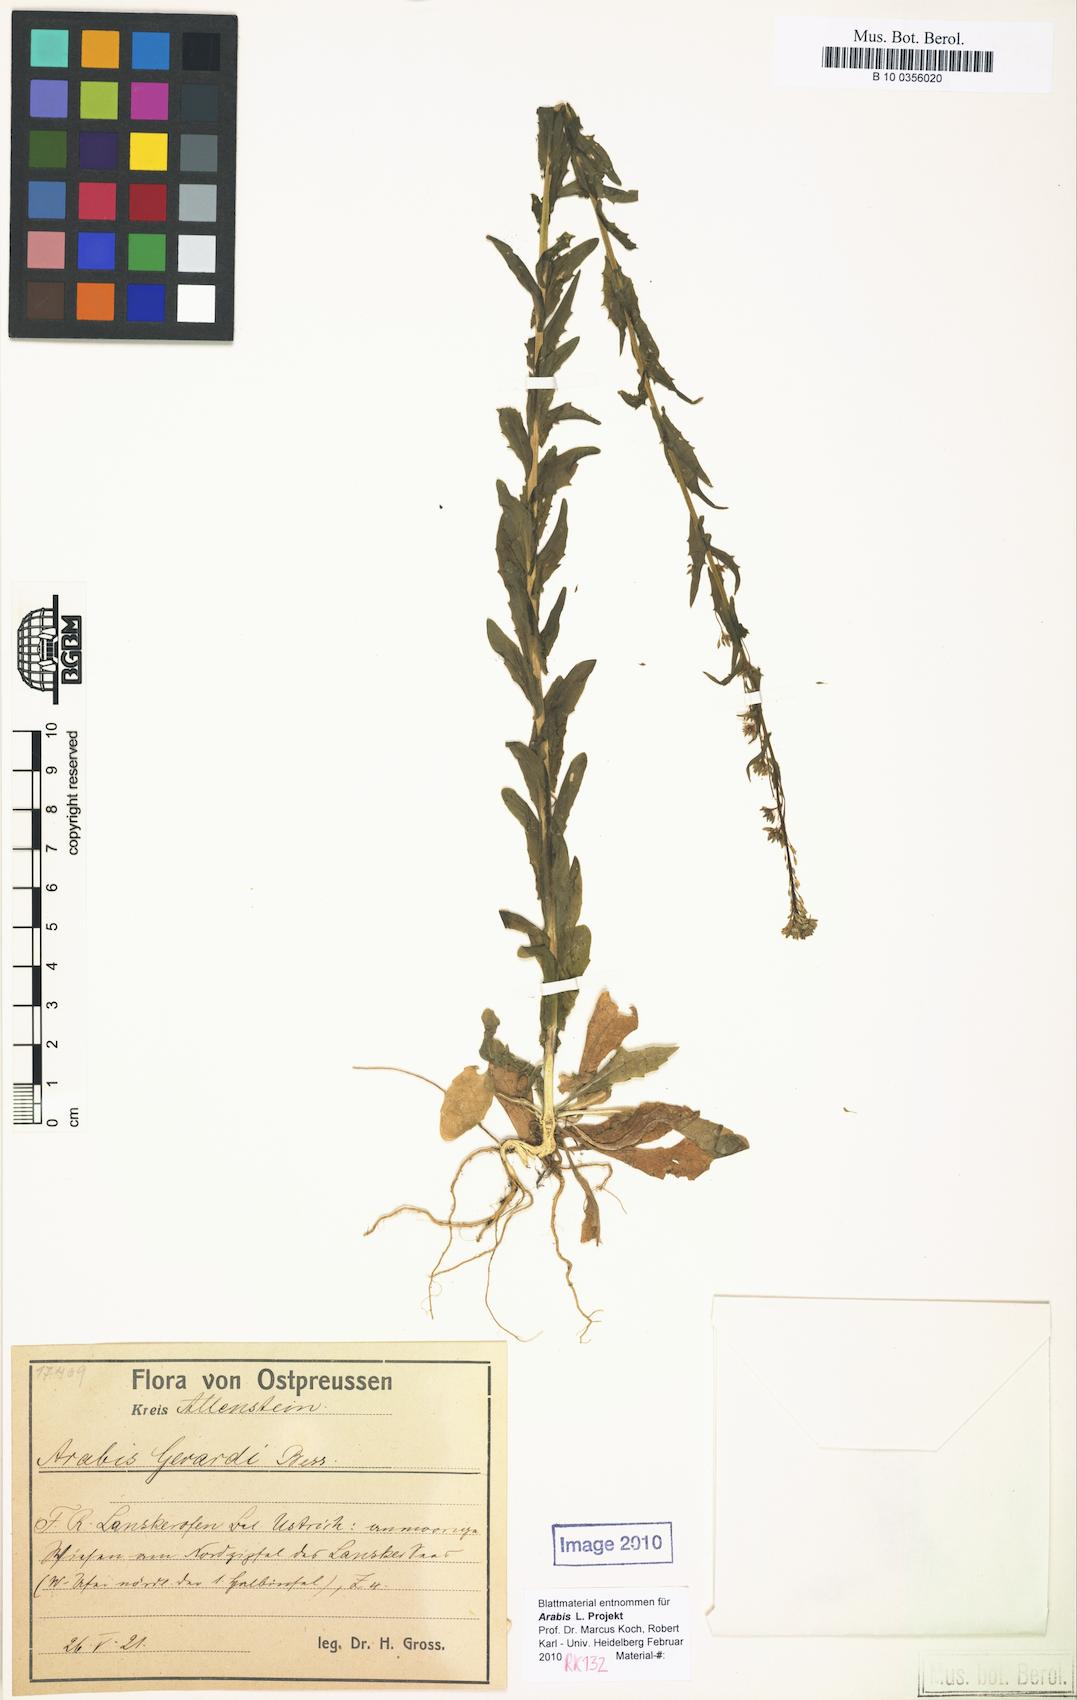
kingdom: Plantae
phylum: Tracheophyta
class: Magnoliopsida
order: Brassicales
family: Brassicaceae
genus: Arabis
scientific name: Arabis planisiliqua
